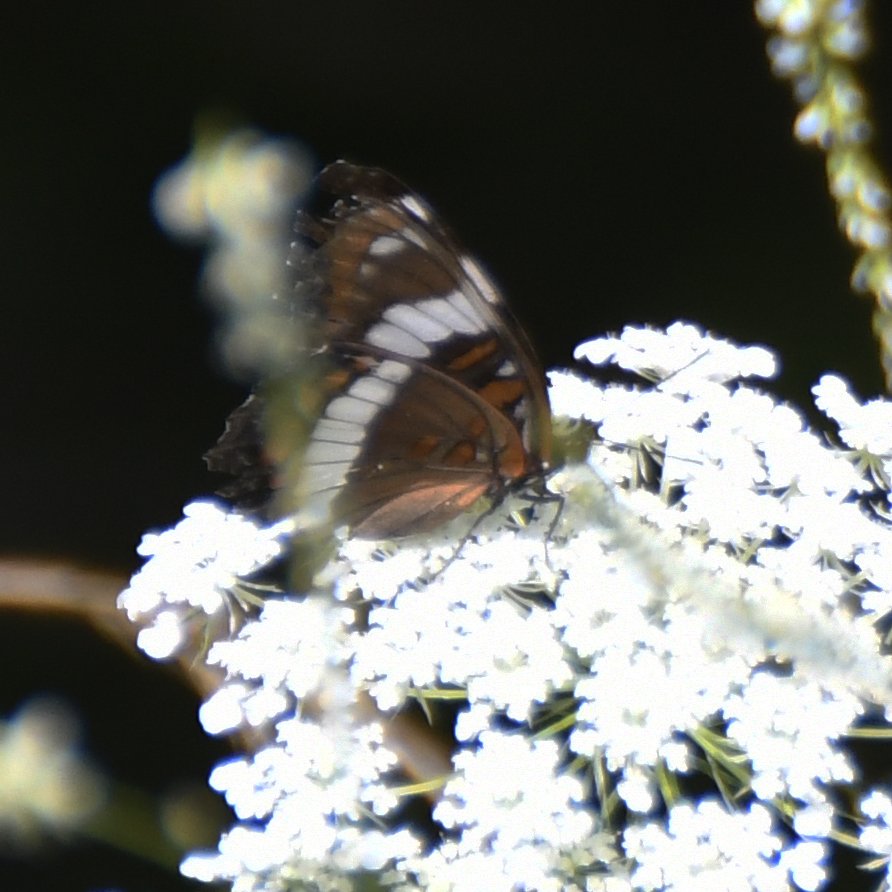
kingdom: Animalia
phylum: Arthropoda
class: Insecta
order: Lepidoptera
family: Nymphalidae
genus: Limenitis
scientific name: Limenitis arthemis
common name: Red-spotted Admiral
